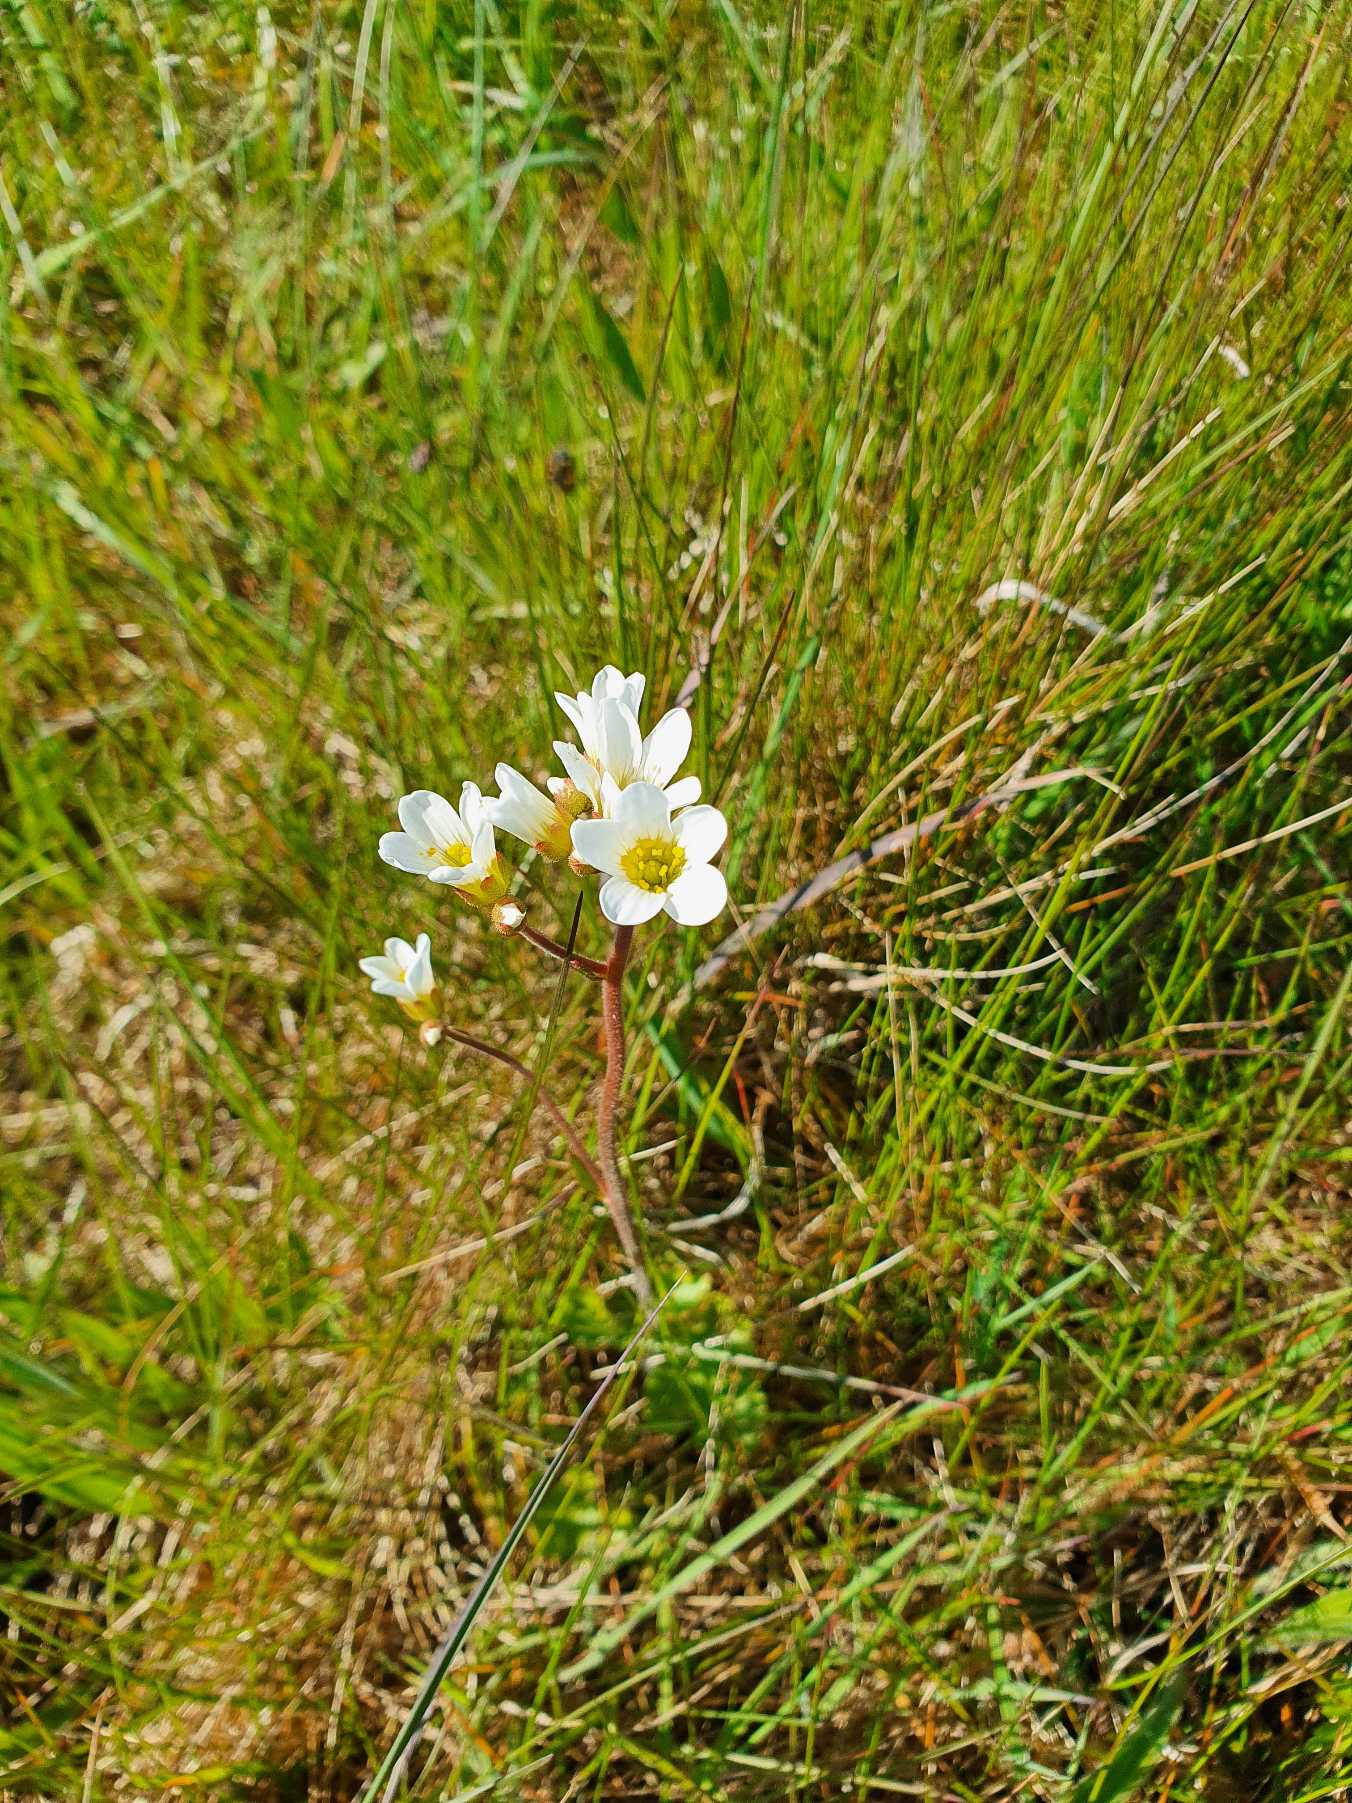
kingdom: Plantae
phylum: Tracheophyta
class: Magnoliopsida
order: Saxifragales
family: Saxifragaceae
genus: Saxifraga
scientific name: Saxifraga granulata
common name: Kornet stenbræk
